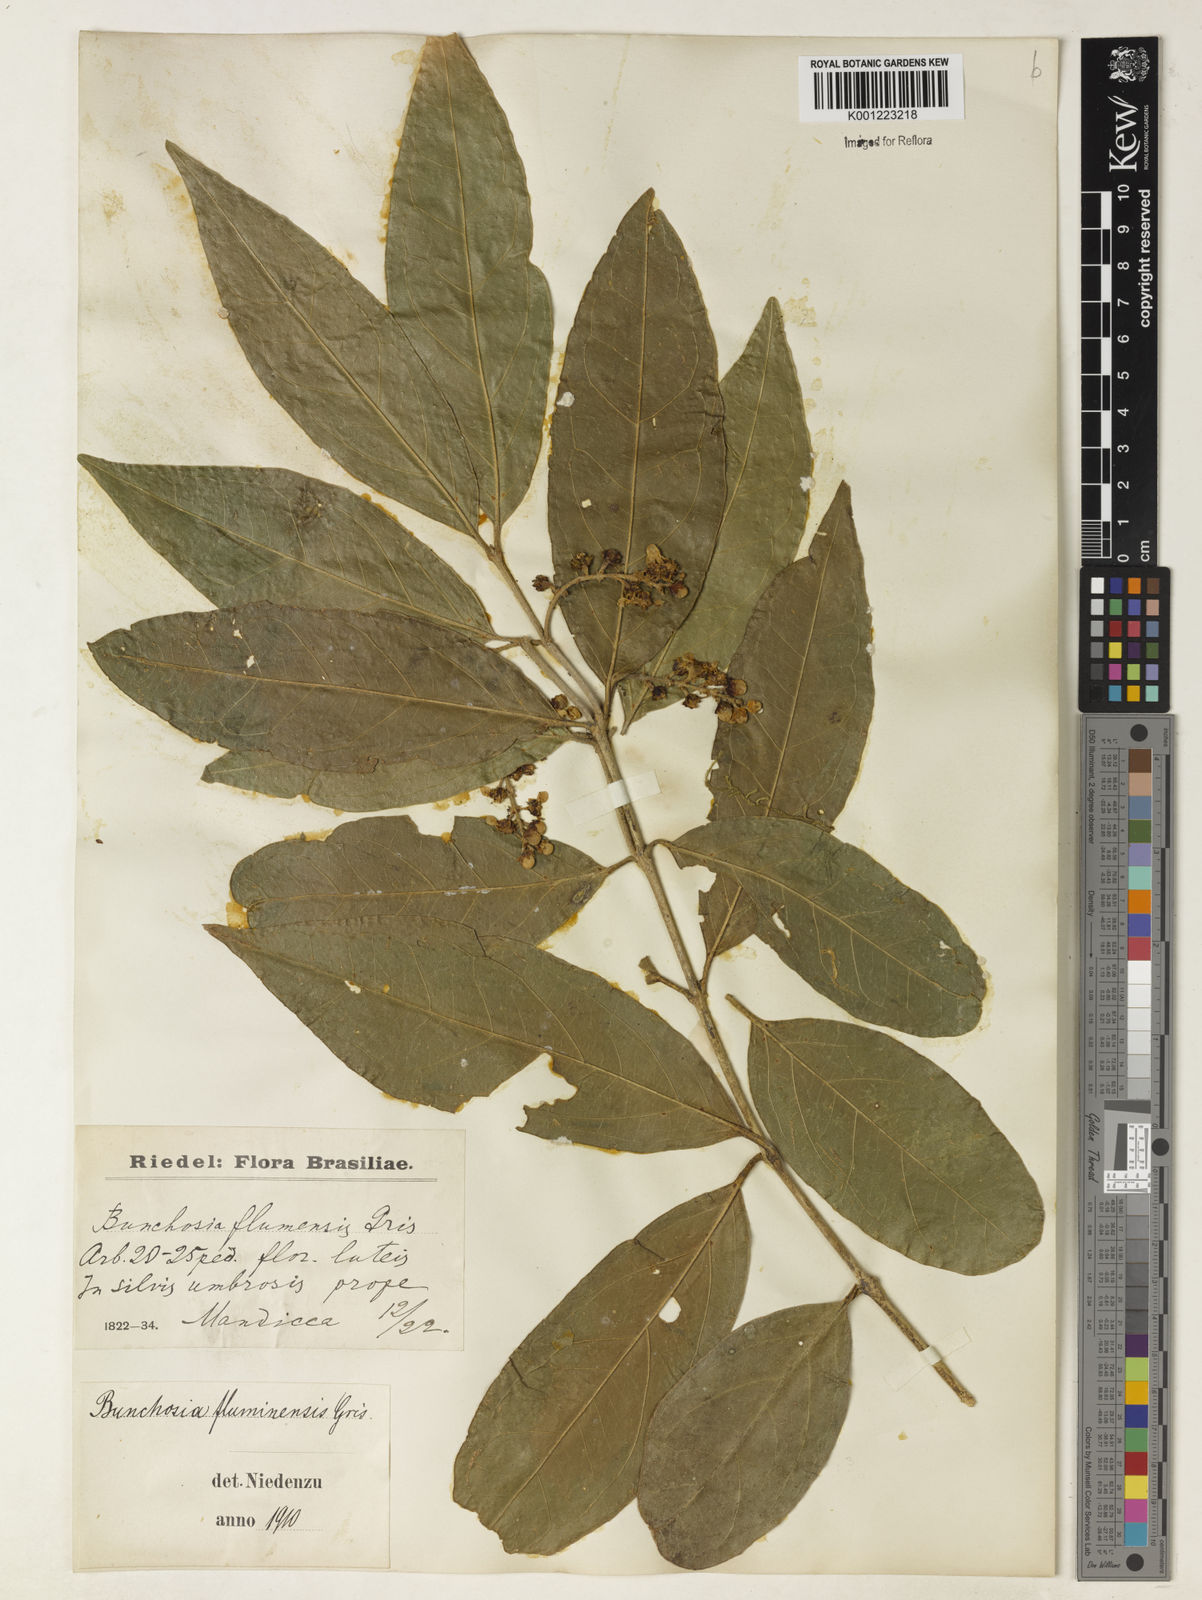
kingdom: Plantae
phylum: Tracheophyta
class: Magnoliopsida
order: Malpighiales
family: Malpighiaceae
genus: Bunchosia
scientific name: Bunchosia fluminensis
